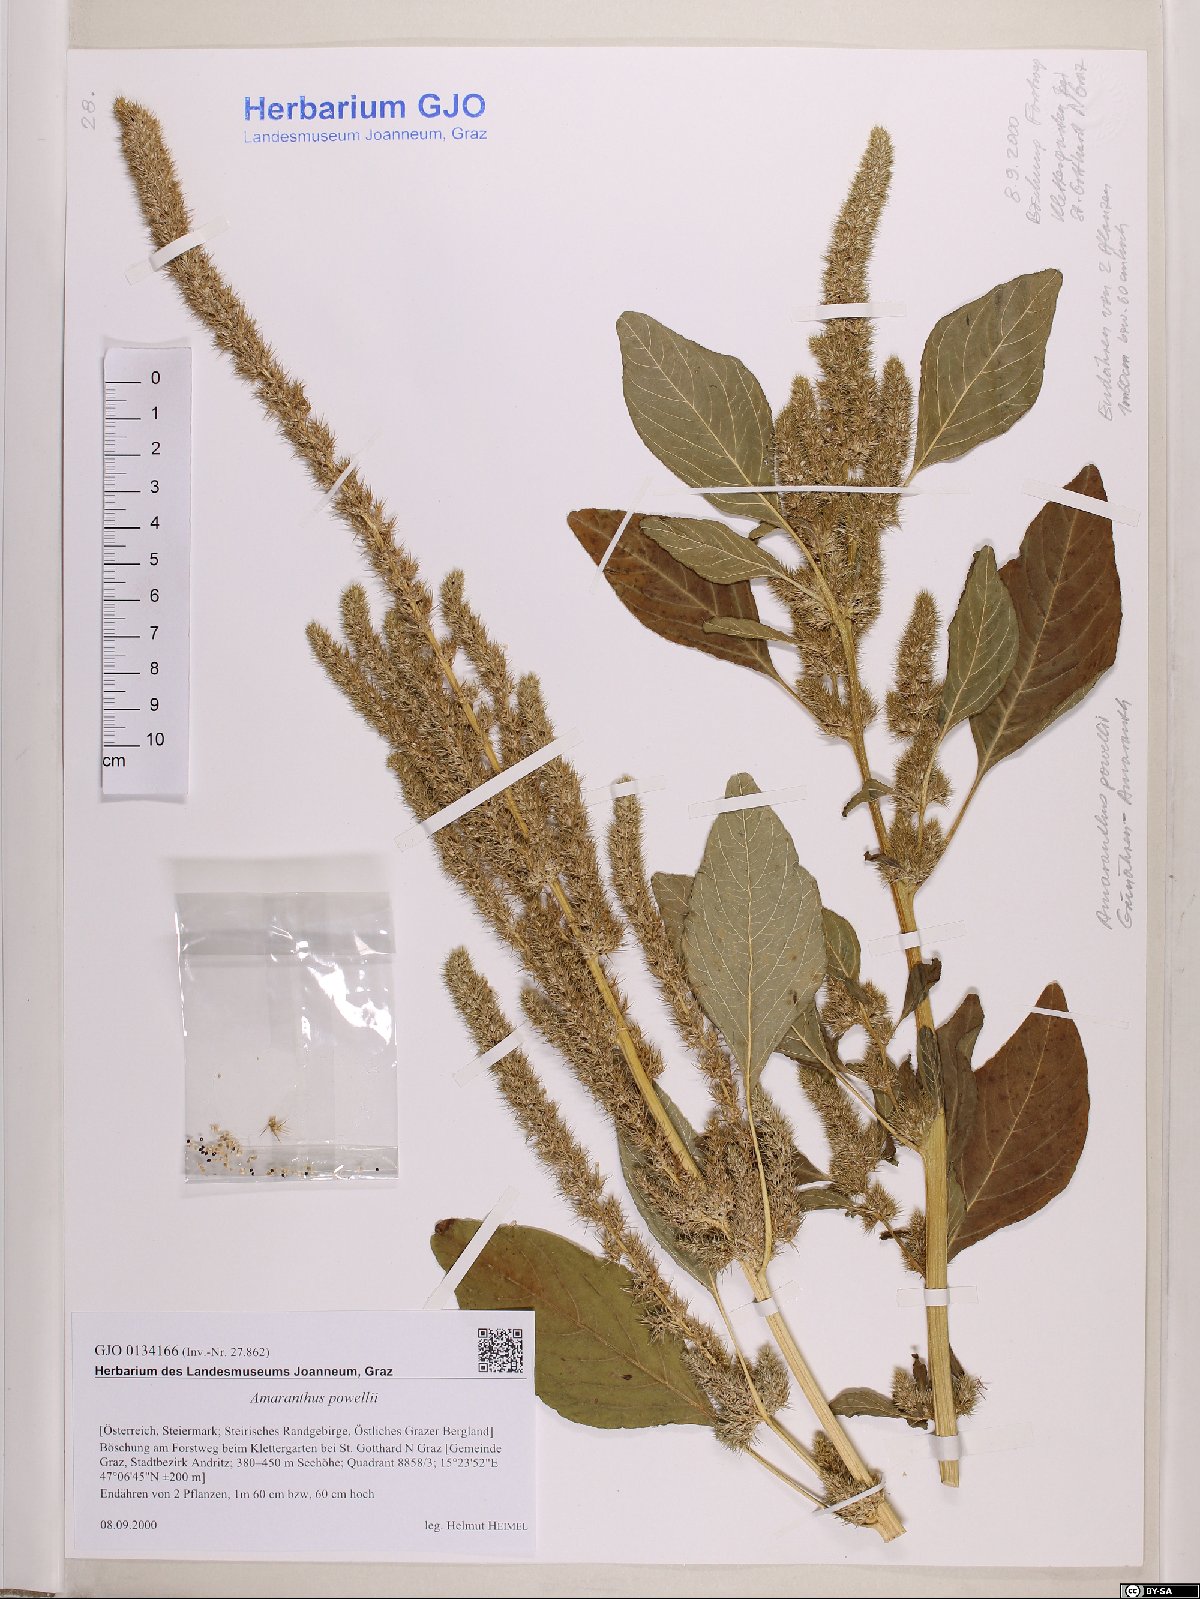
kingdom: Plantae
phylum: Tracheophyta
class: Magnoliopsida
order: Caryophyllales
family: Amaranthaceae
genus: Amaranthus
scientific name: Amaranthus powellii
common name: Powell's amaranth
